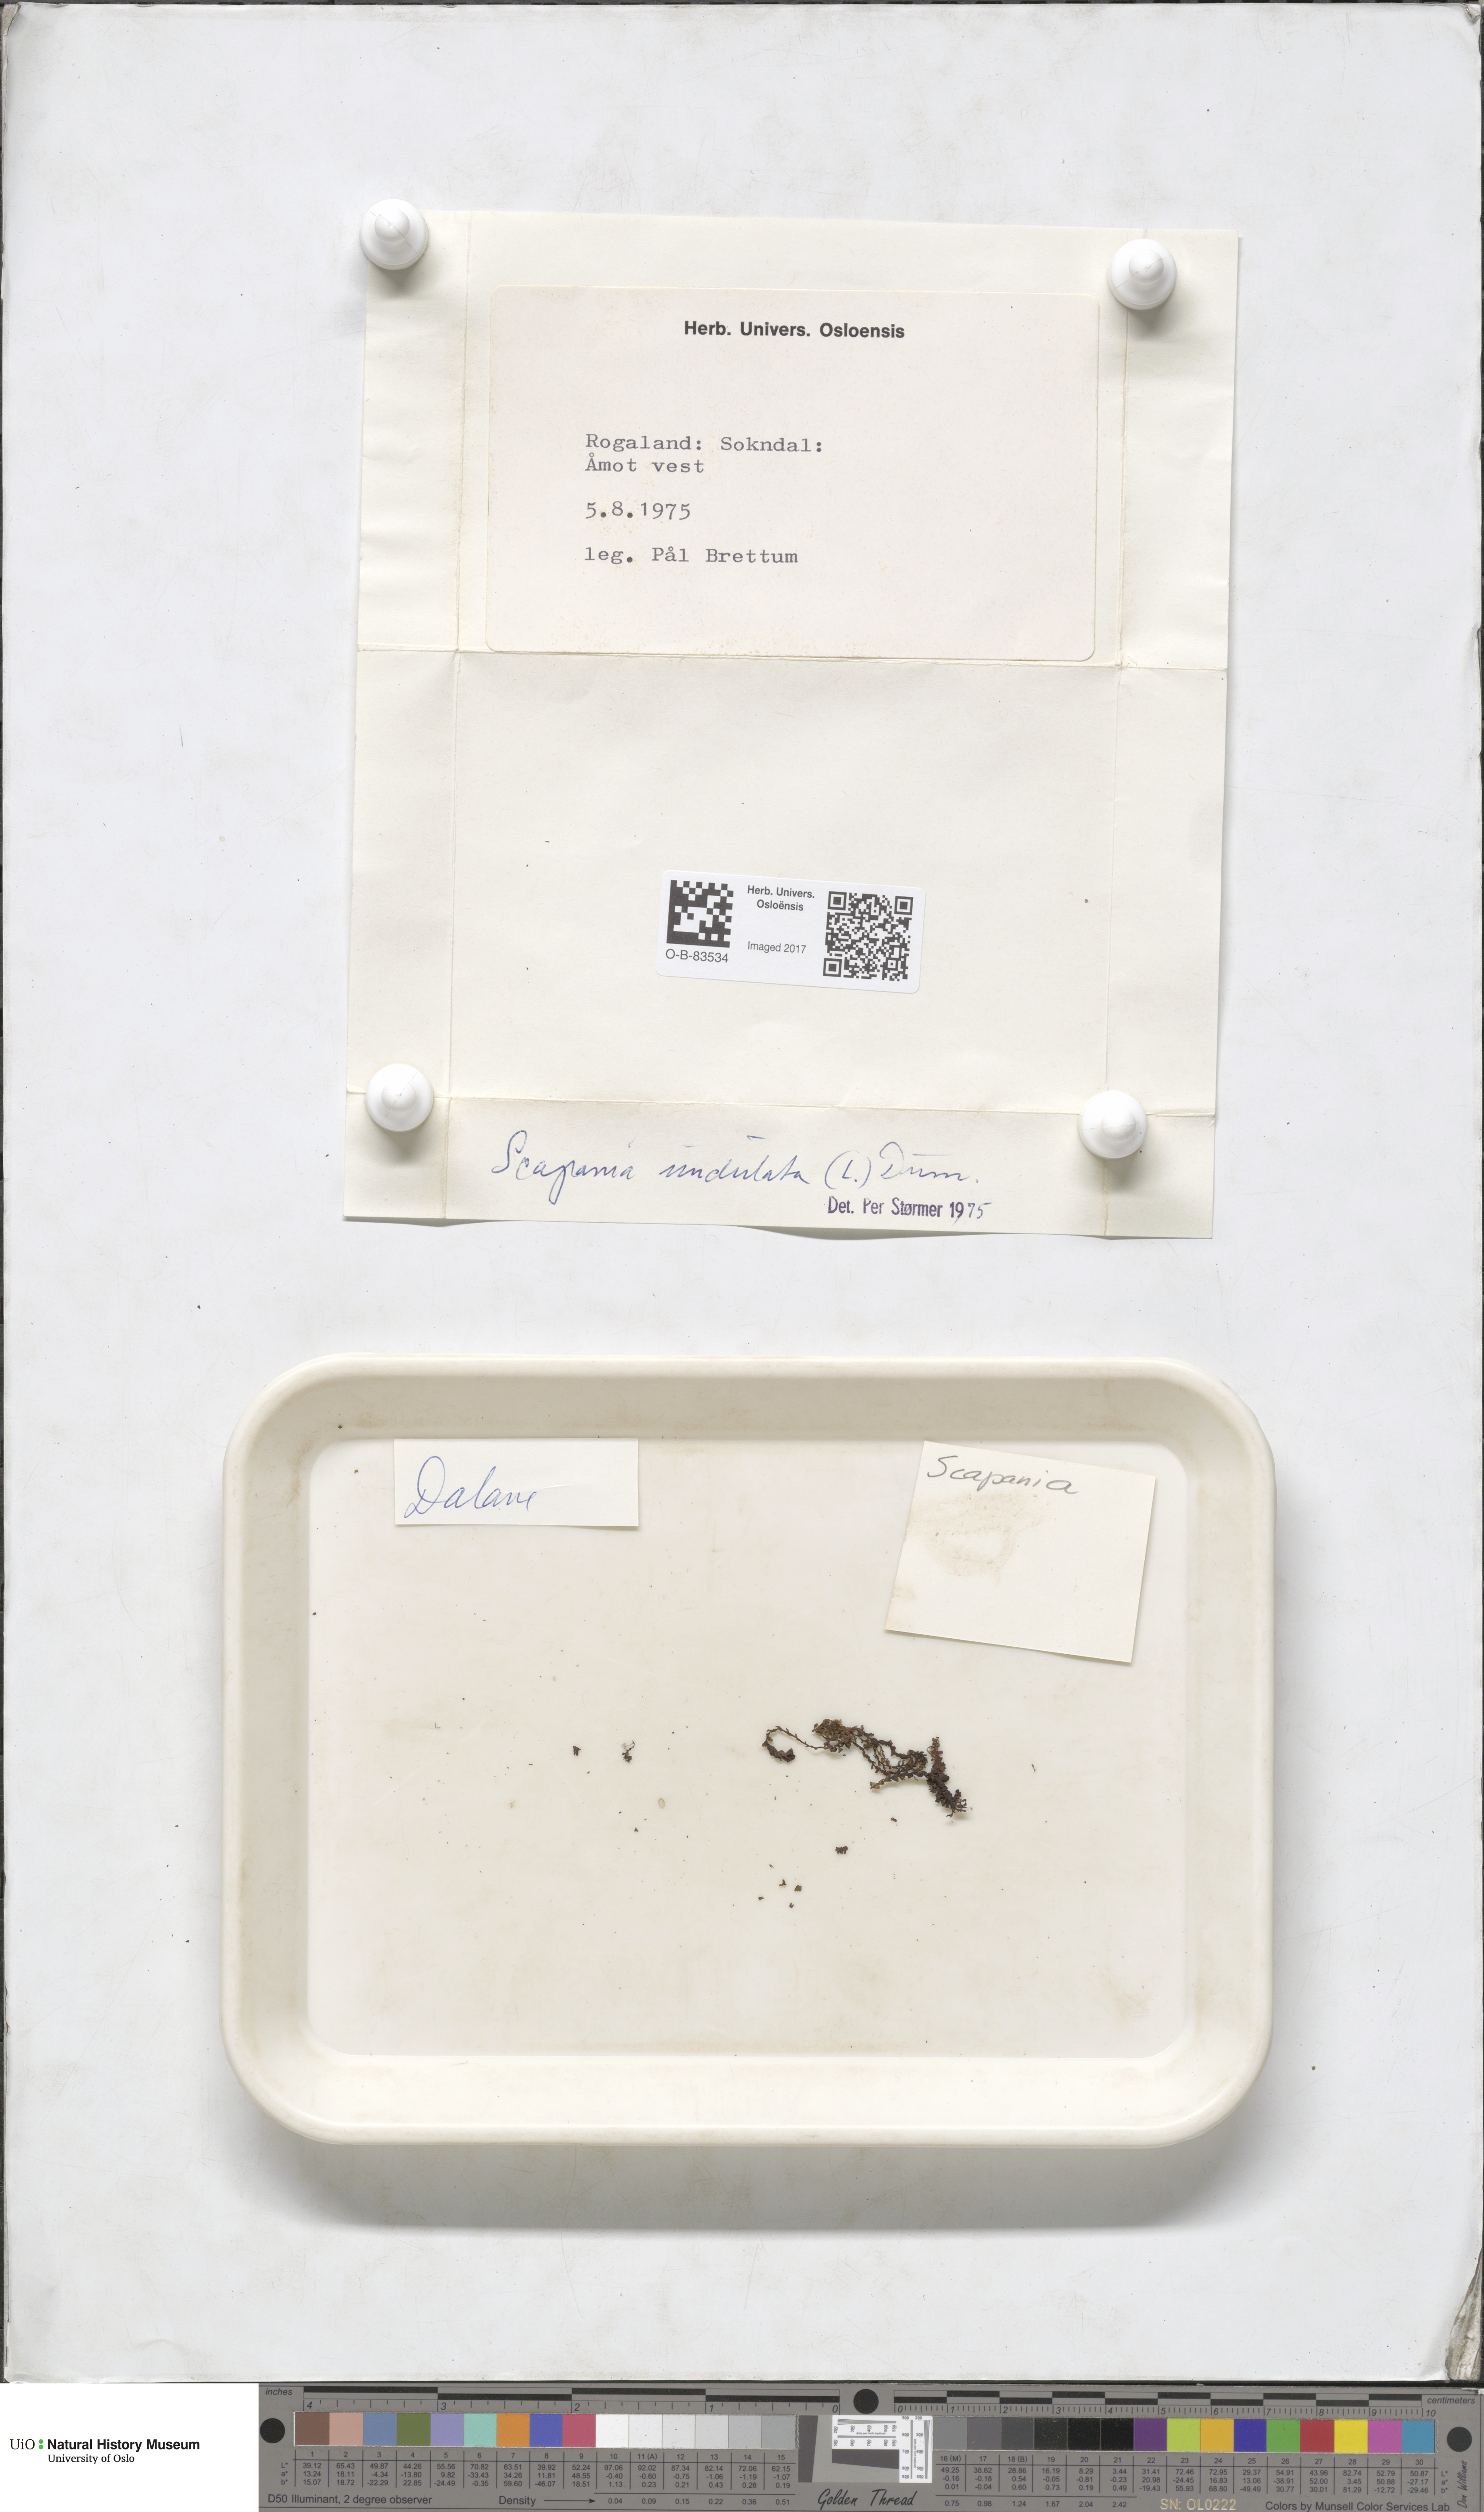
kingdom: Plantae
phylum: Marchantiophyta
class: Jungermanniopsida
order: Jungermanniales
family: Scapaniaceae
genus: Scapania
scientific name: Scapania undulata
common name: Water earwort
